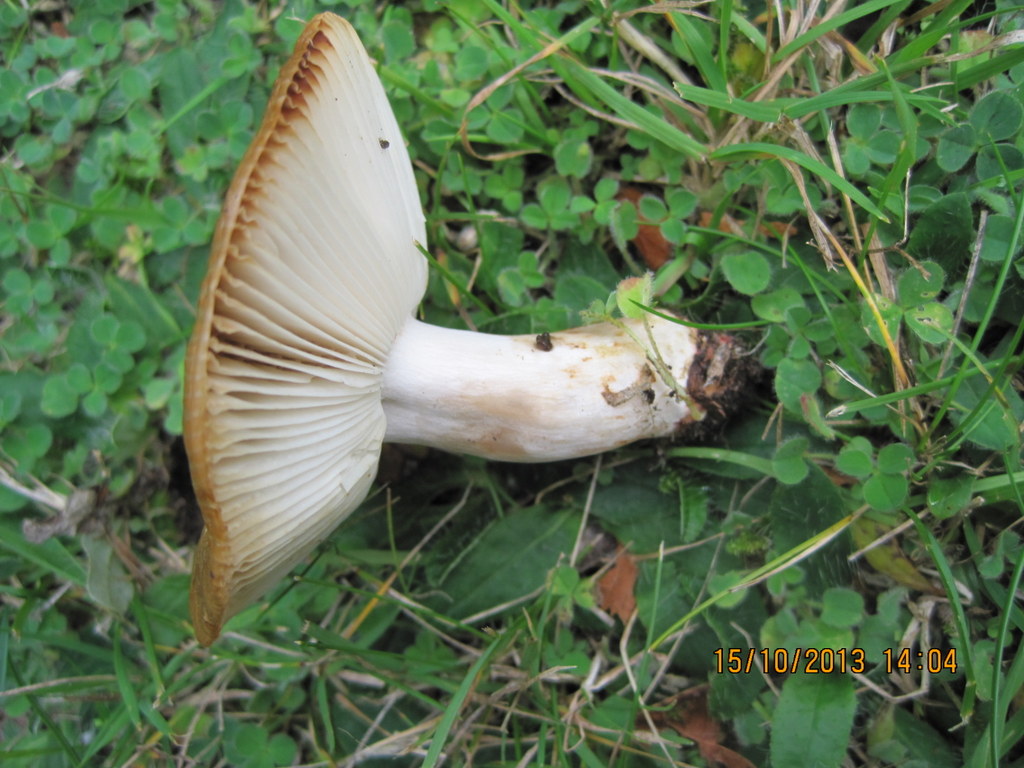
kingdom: Fungi
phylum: Basidiomycota
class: Agaricomycetes
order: Russulales
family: Russulaceae
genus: Russula
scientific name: Russula recondita
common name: mild kam-skørhat
